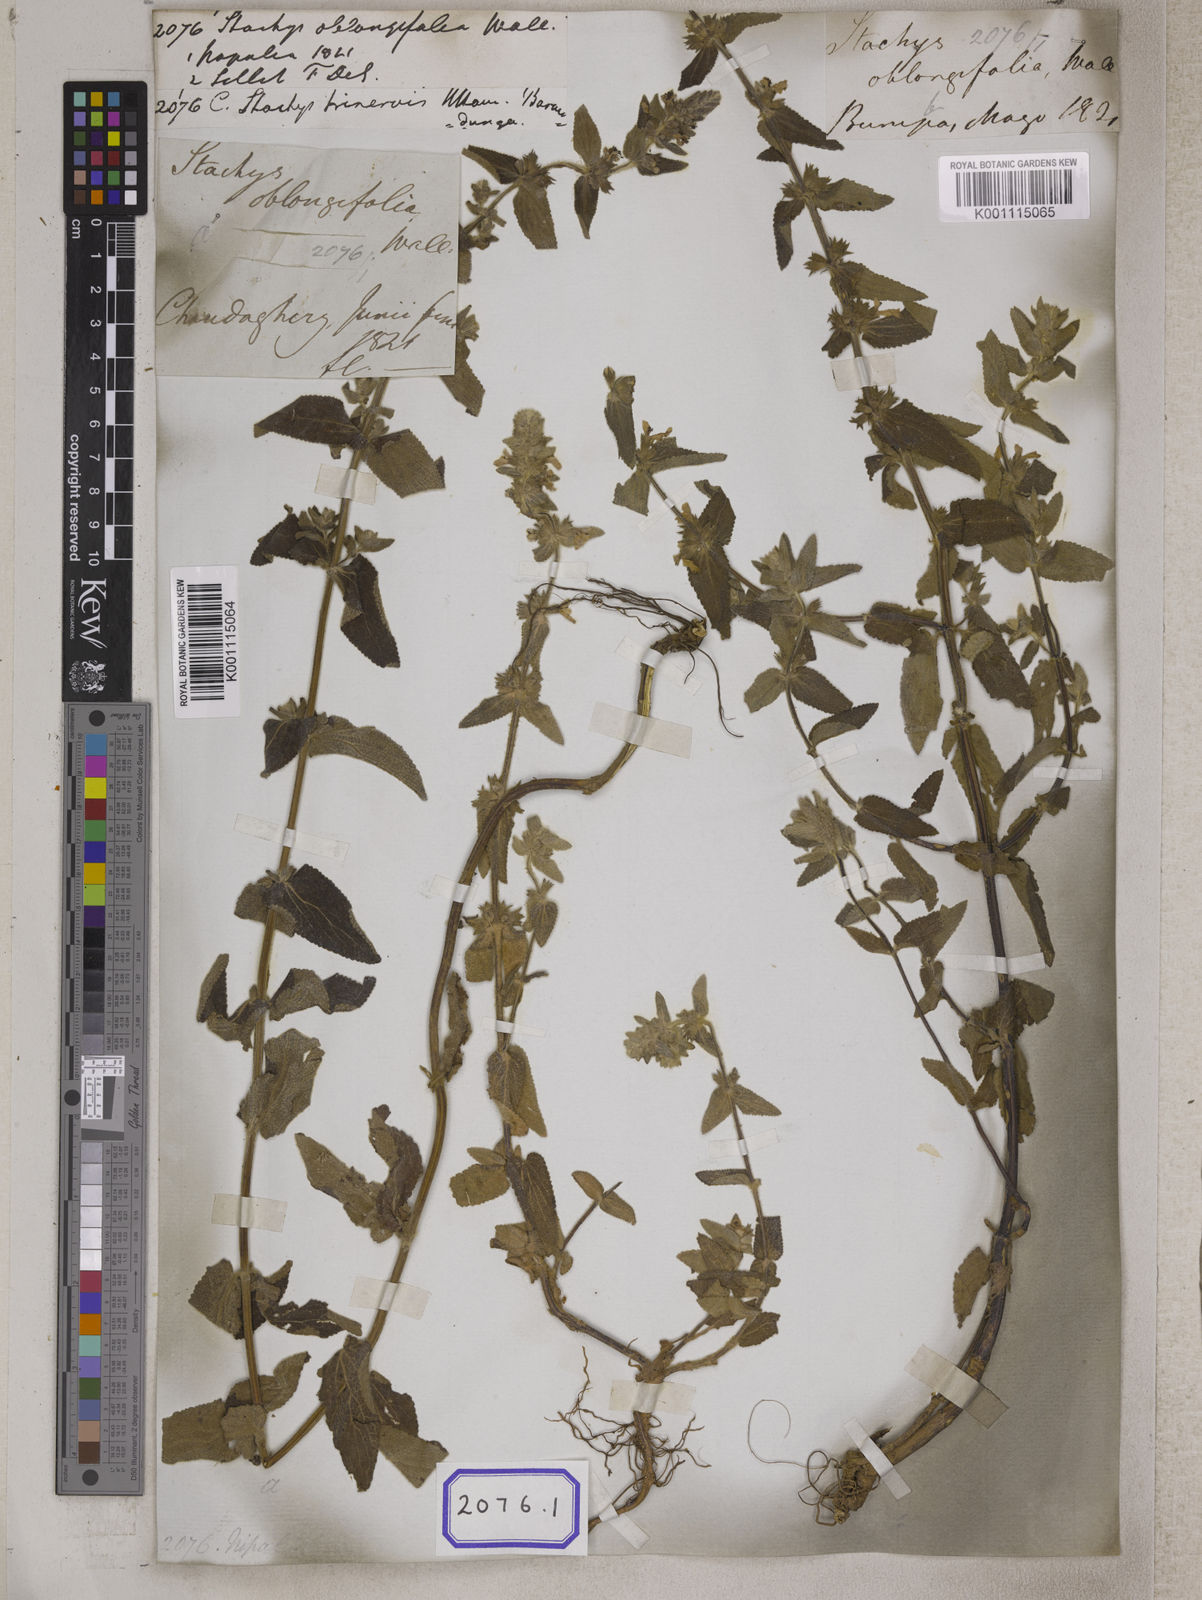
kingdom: Plantae
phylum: Tracheophyta
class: Magnoliopsida
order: Lamiales
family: Lamiaceae
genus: Stachys
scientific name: Stachys
